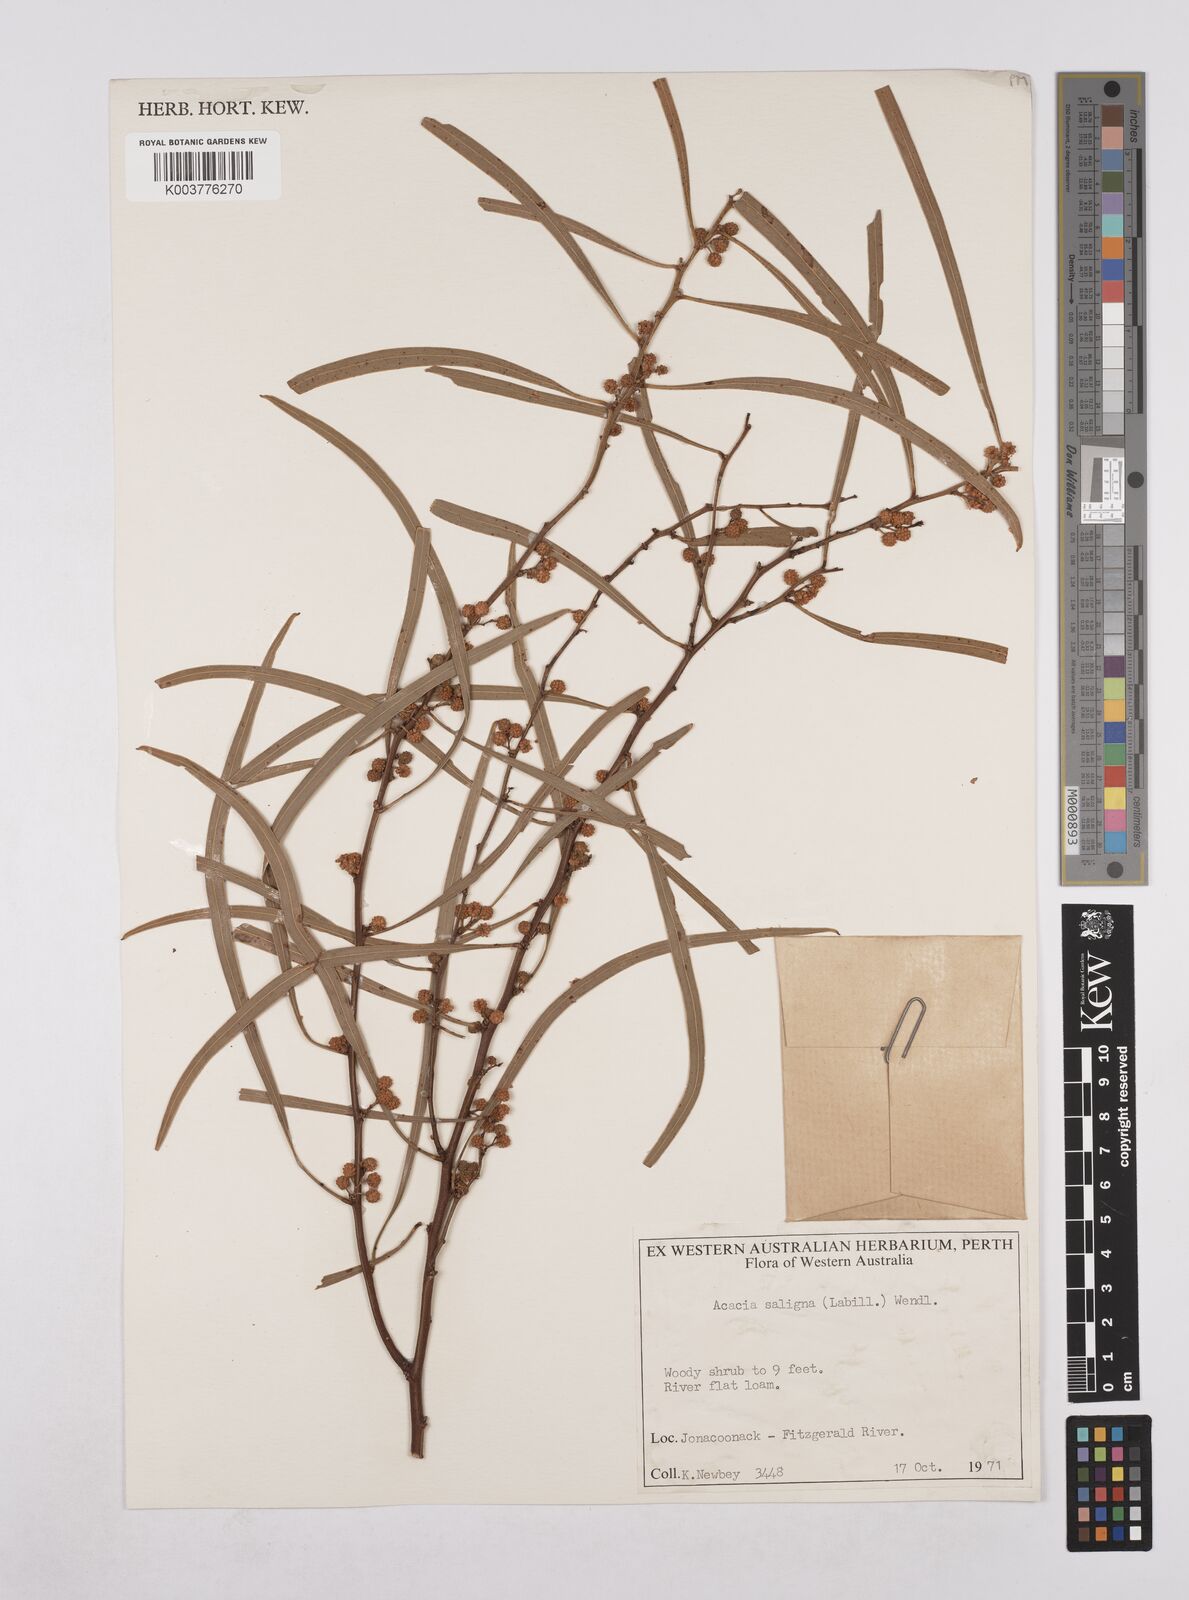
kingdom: Plantae
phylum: Tracheophyta
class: Magnoliopsida
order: Fabales
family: Fabaceae
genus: Acacia
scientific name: Acacia saligna
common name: Orange wattle
